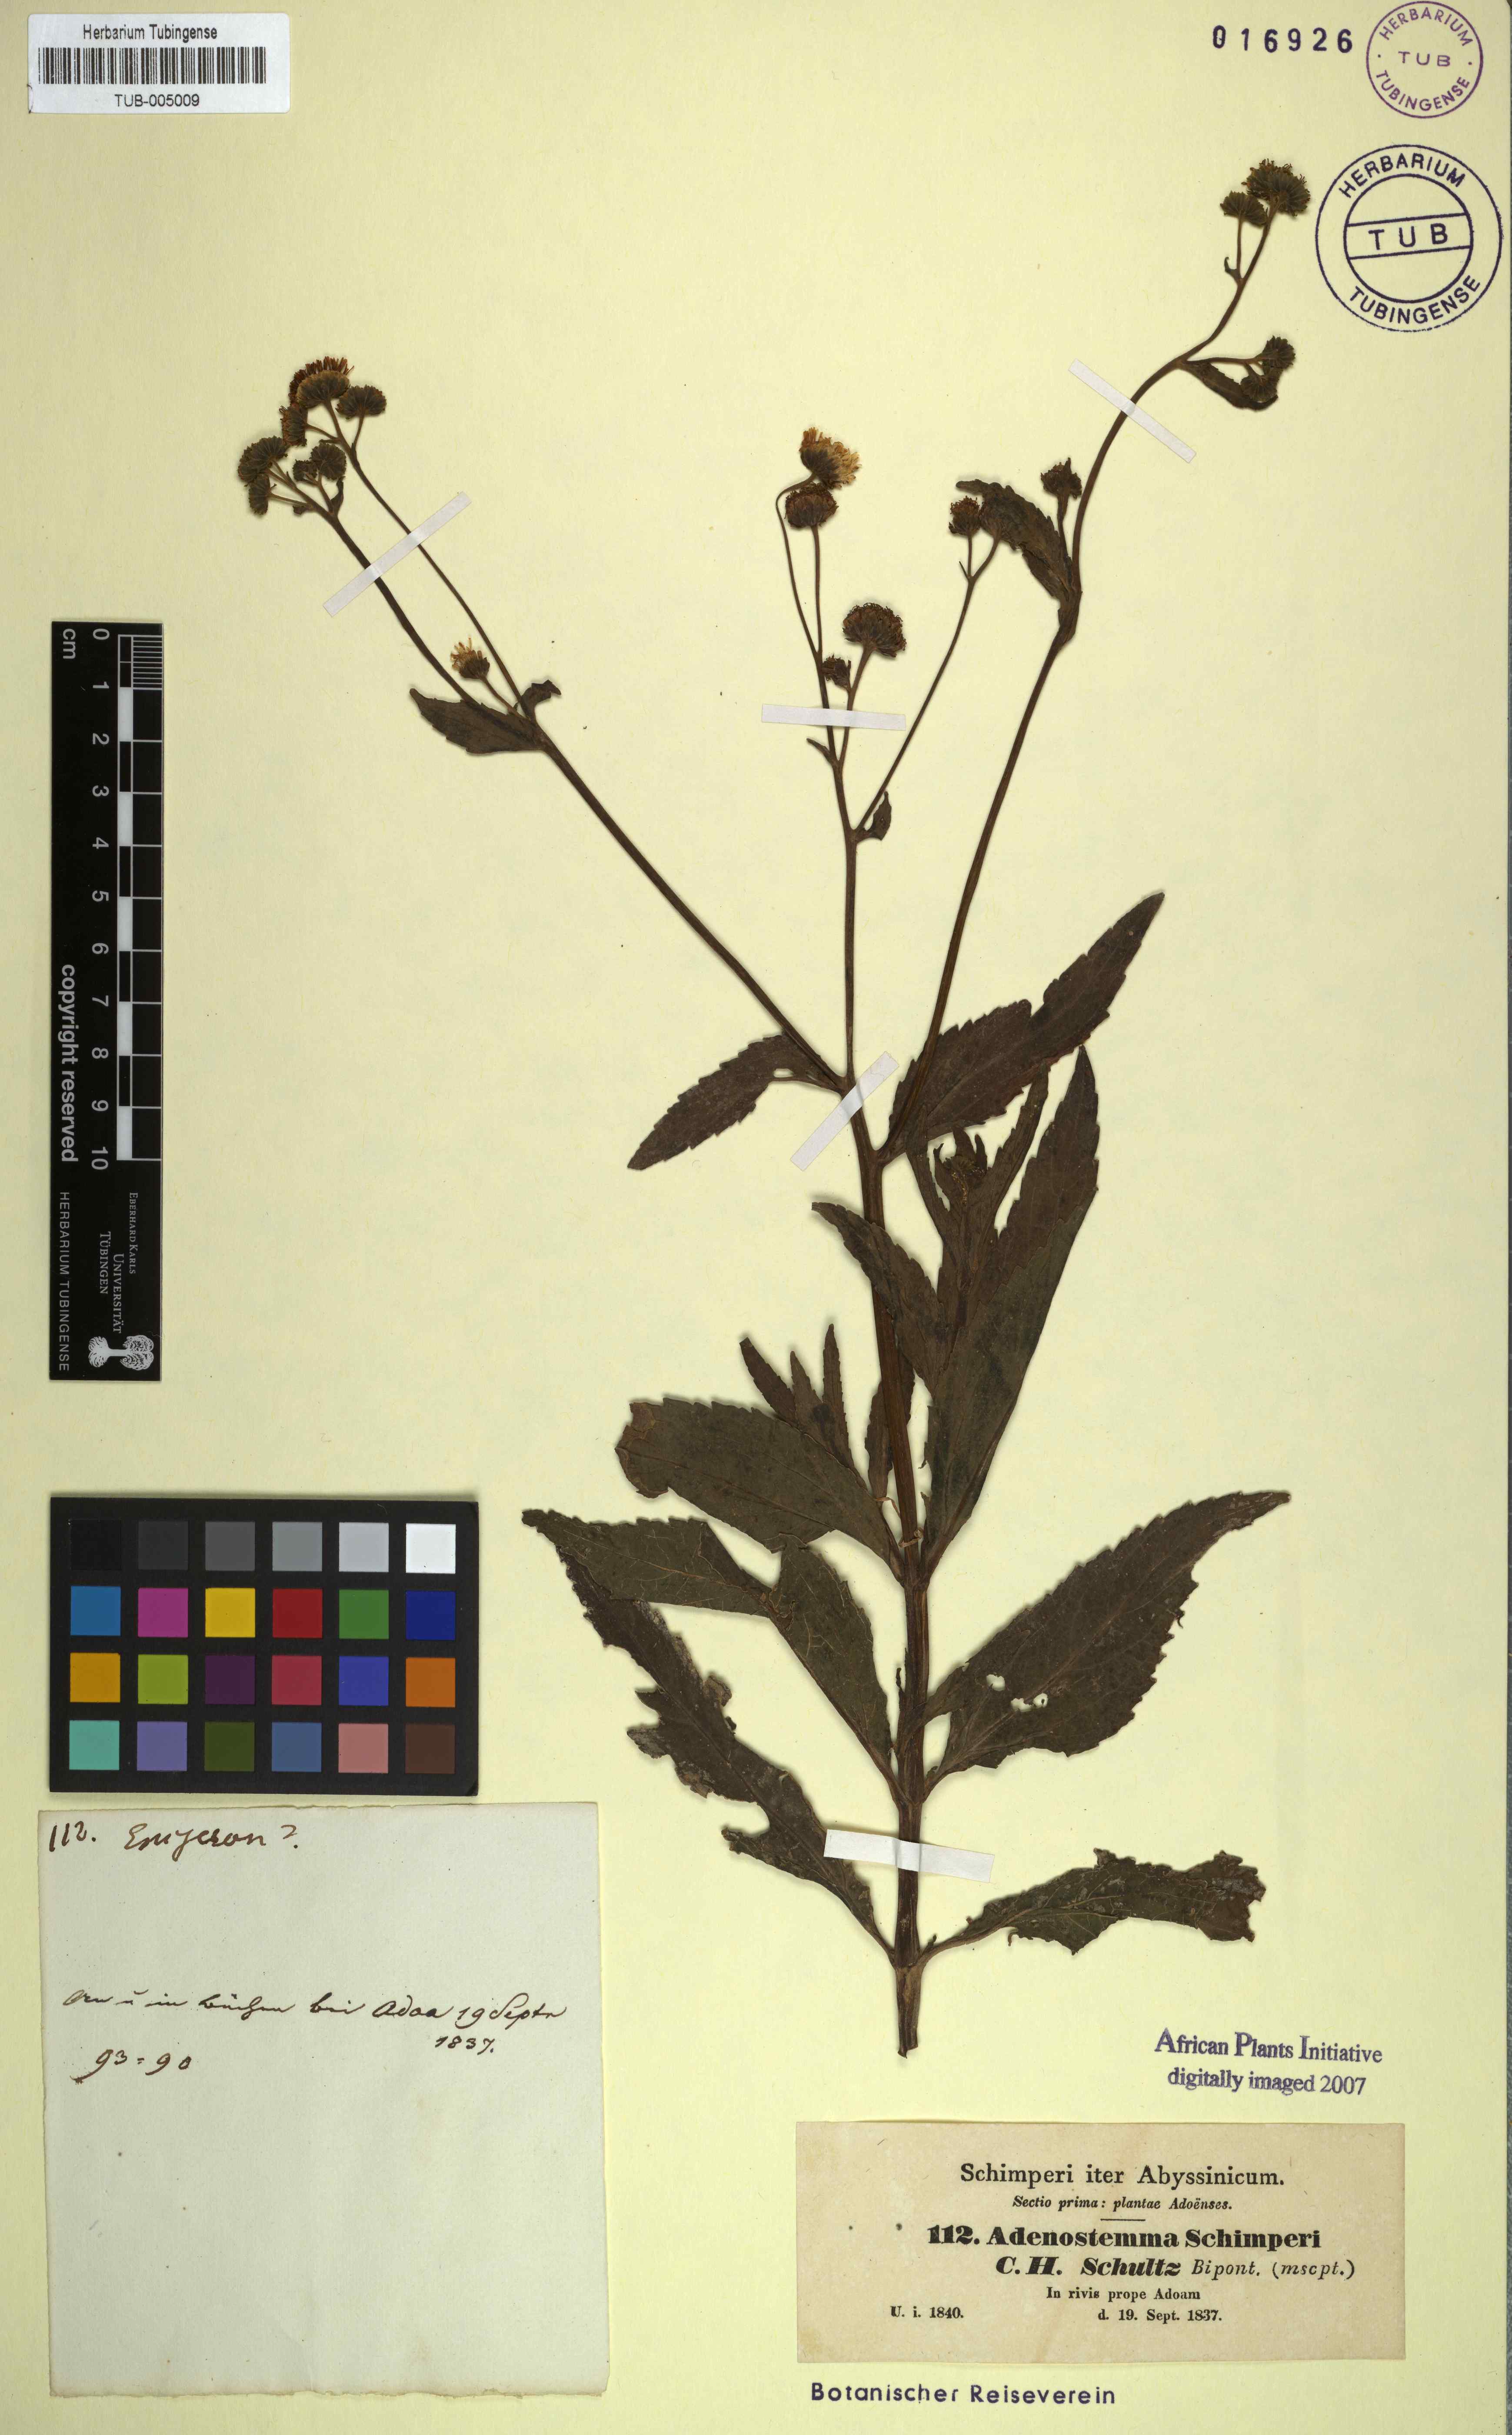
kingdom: Plantae
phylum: Tracheophyta
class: Magnoliopsida
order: Asterales
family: Asteraceae
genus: Adenostemma
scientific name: Adenostemma caffrum
